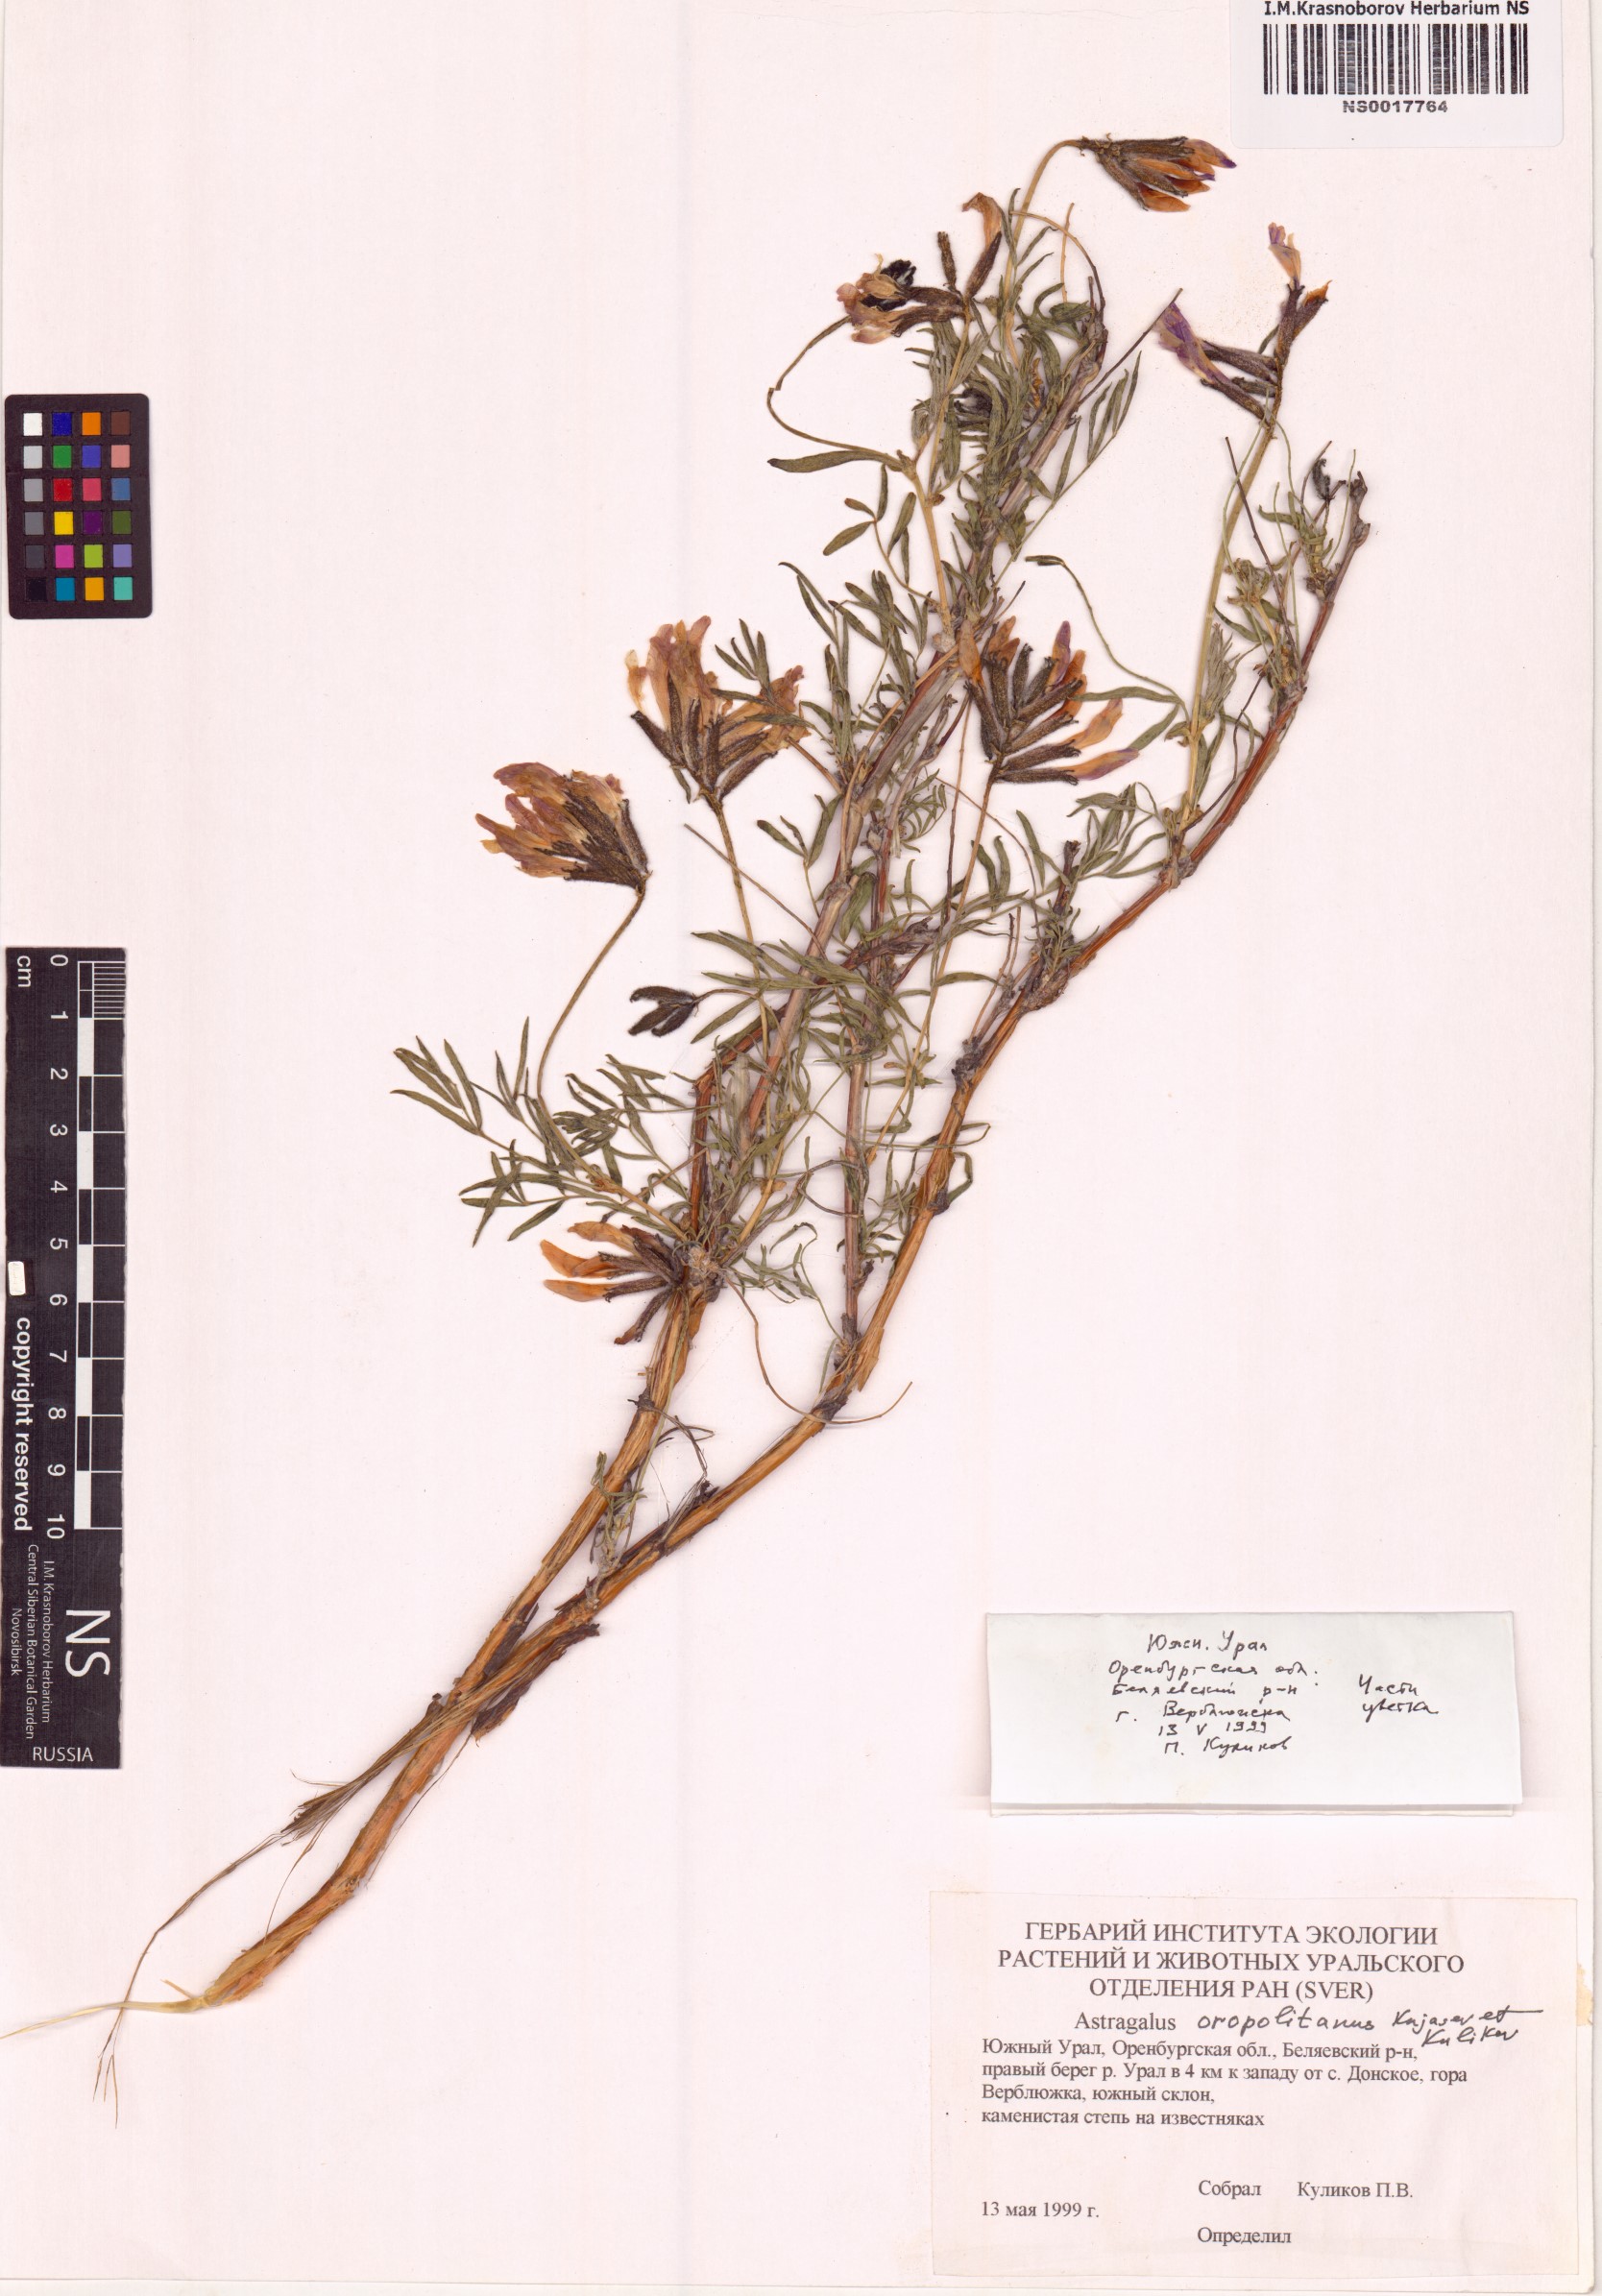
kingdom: Plantae
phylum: Tracheophyta
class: Magnoliopsida
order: Fabales
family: Fabaceae
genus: Astragalus
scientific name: Astragalus oropolitanus
